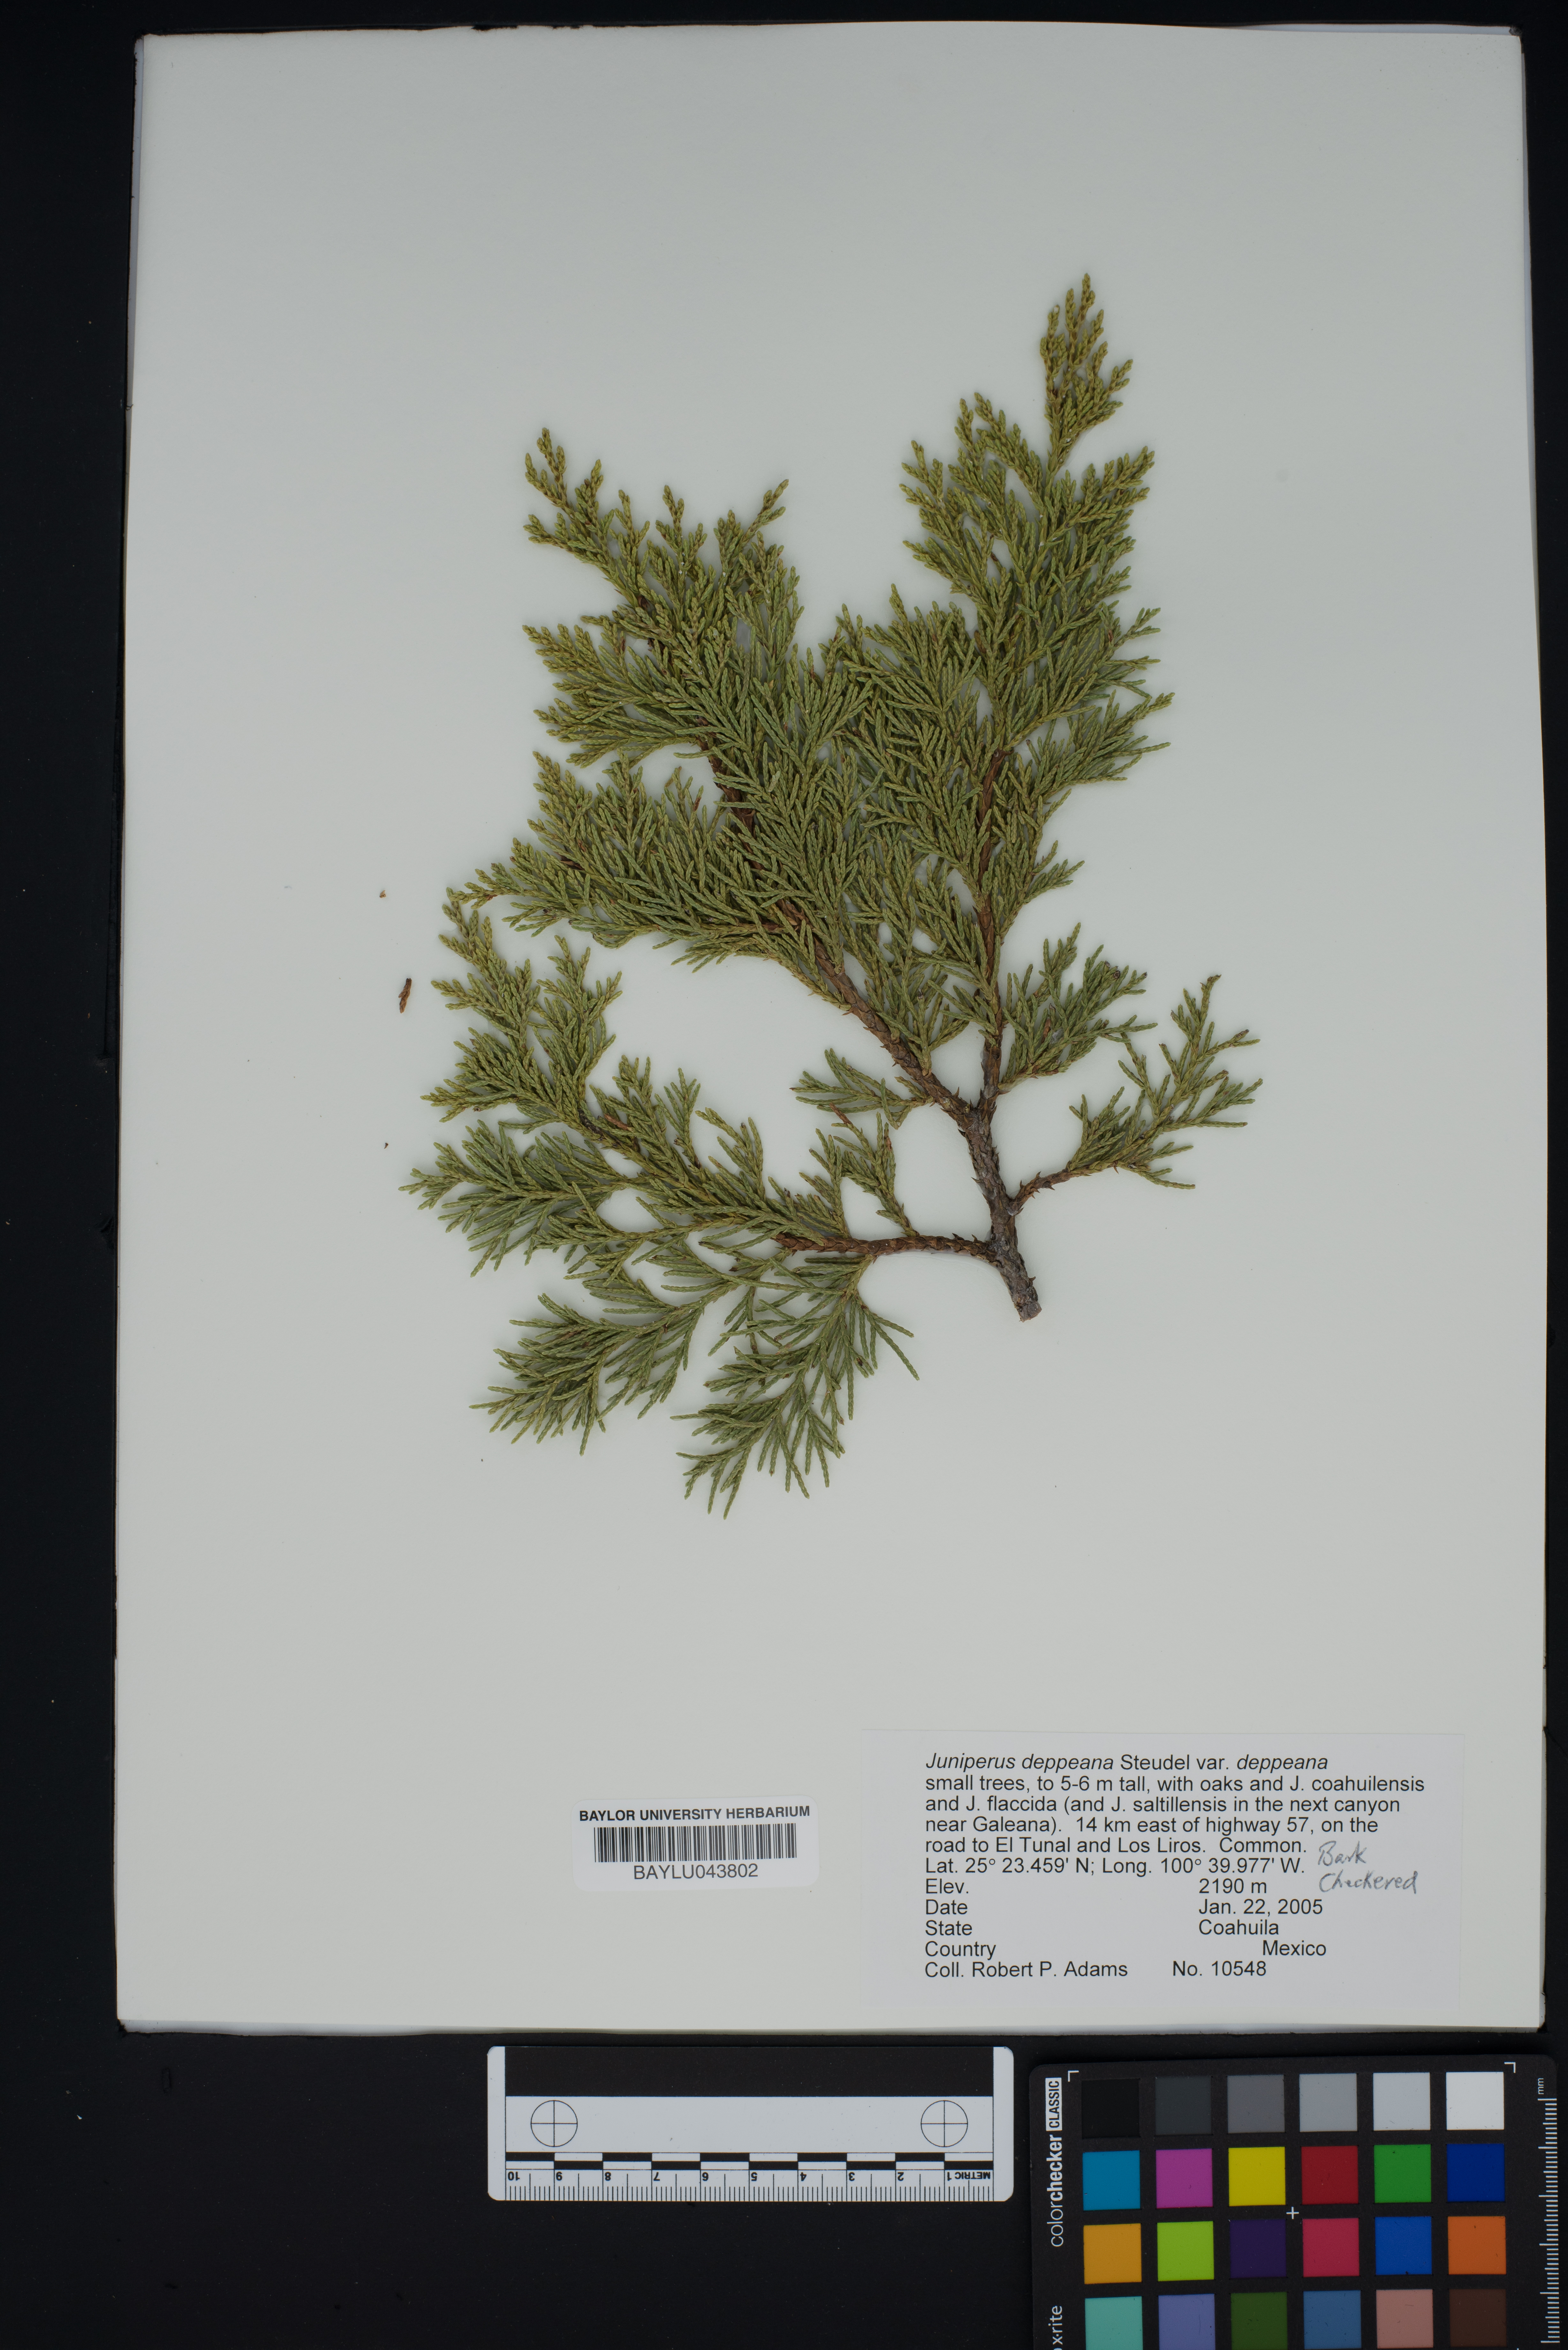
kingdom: Plantae
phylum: Tracheophyta
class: Pinopsida
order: Pinales
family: Cupressaceae
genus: Juniperus
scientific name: Juniperus deppeana
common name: Alligator juniper
